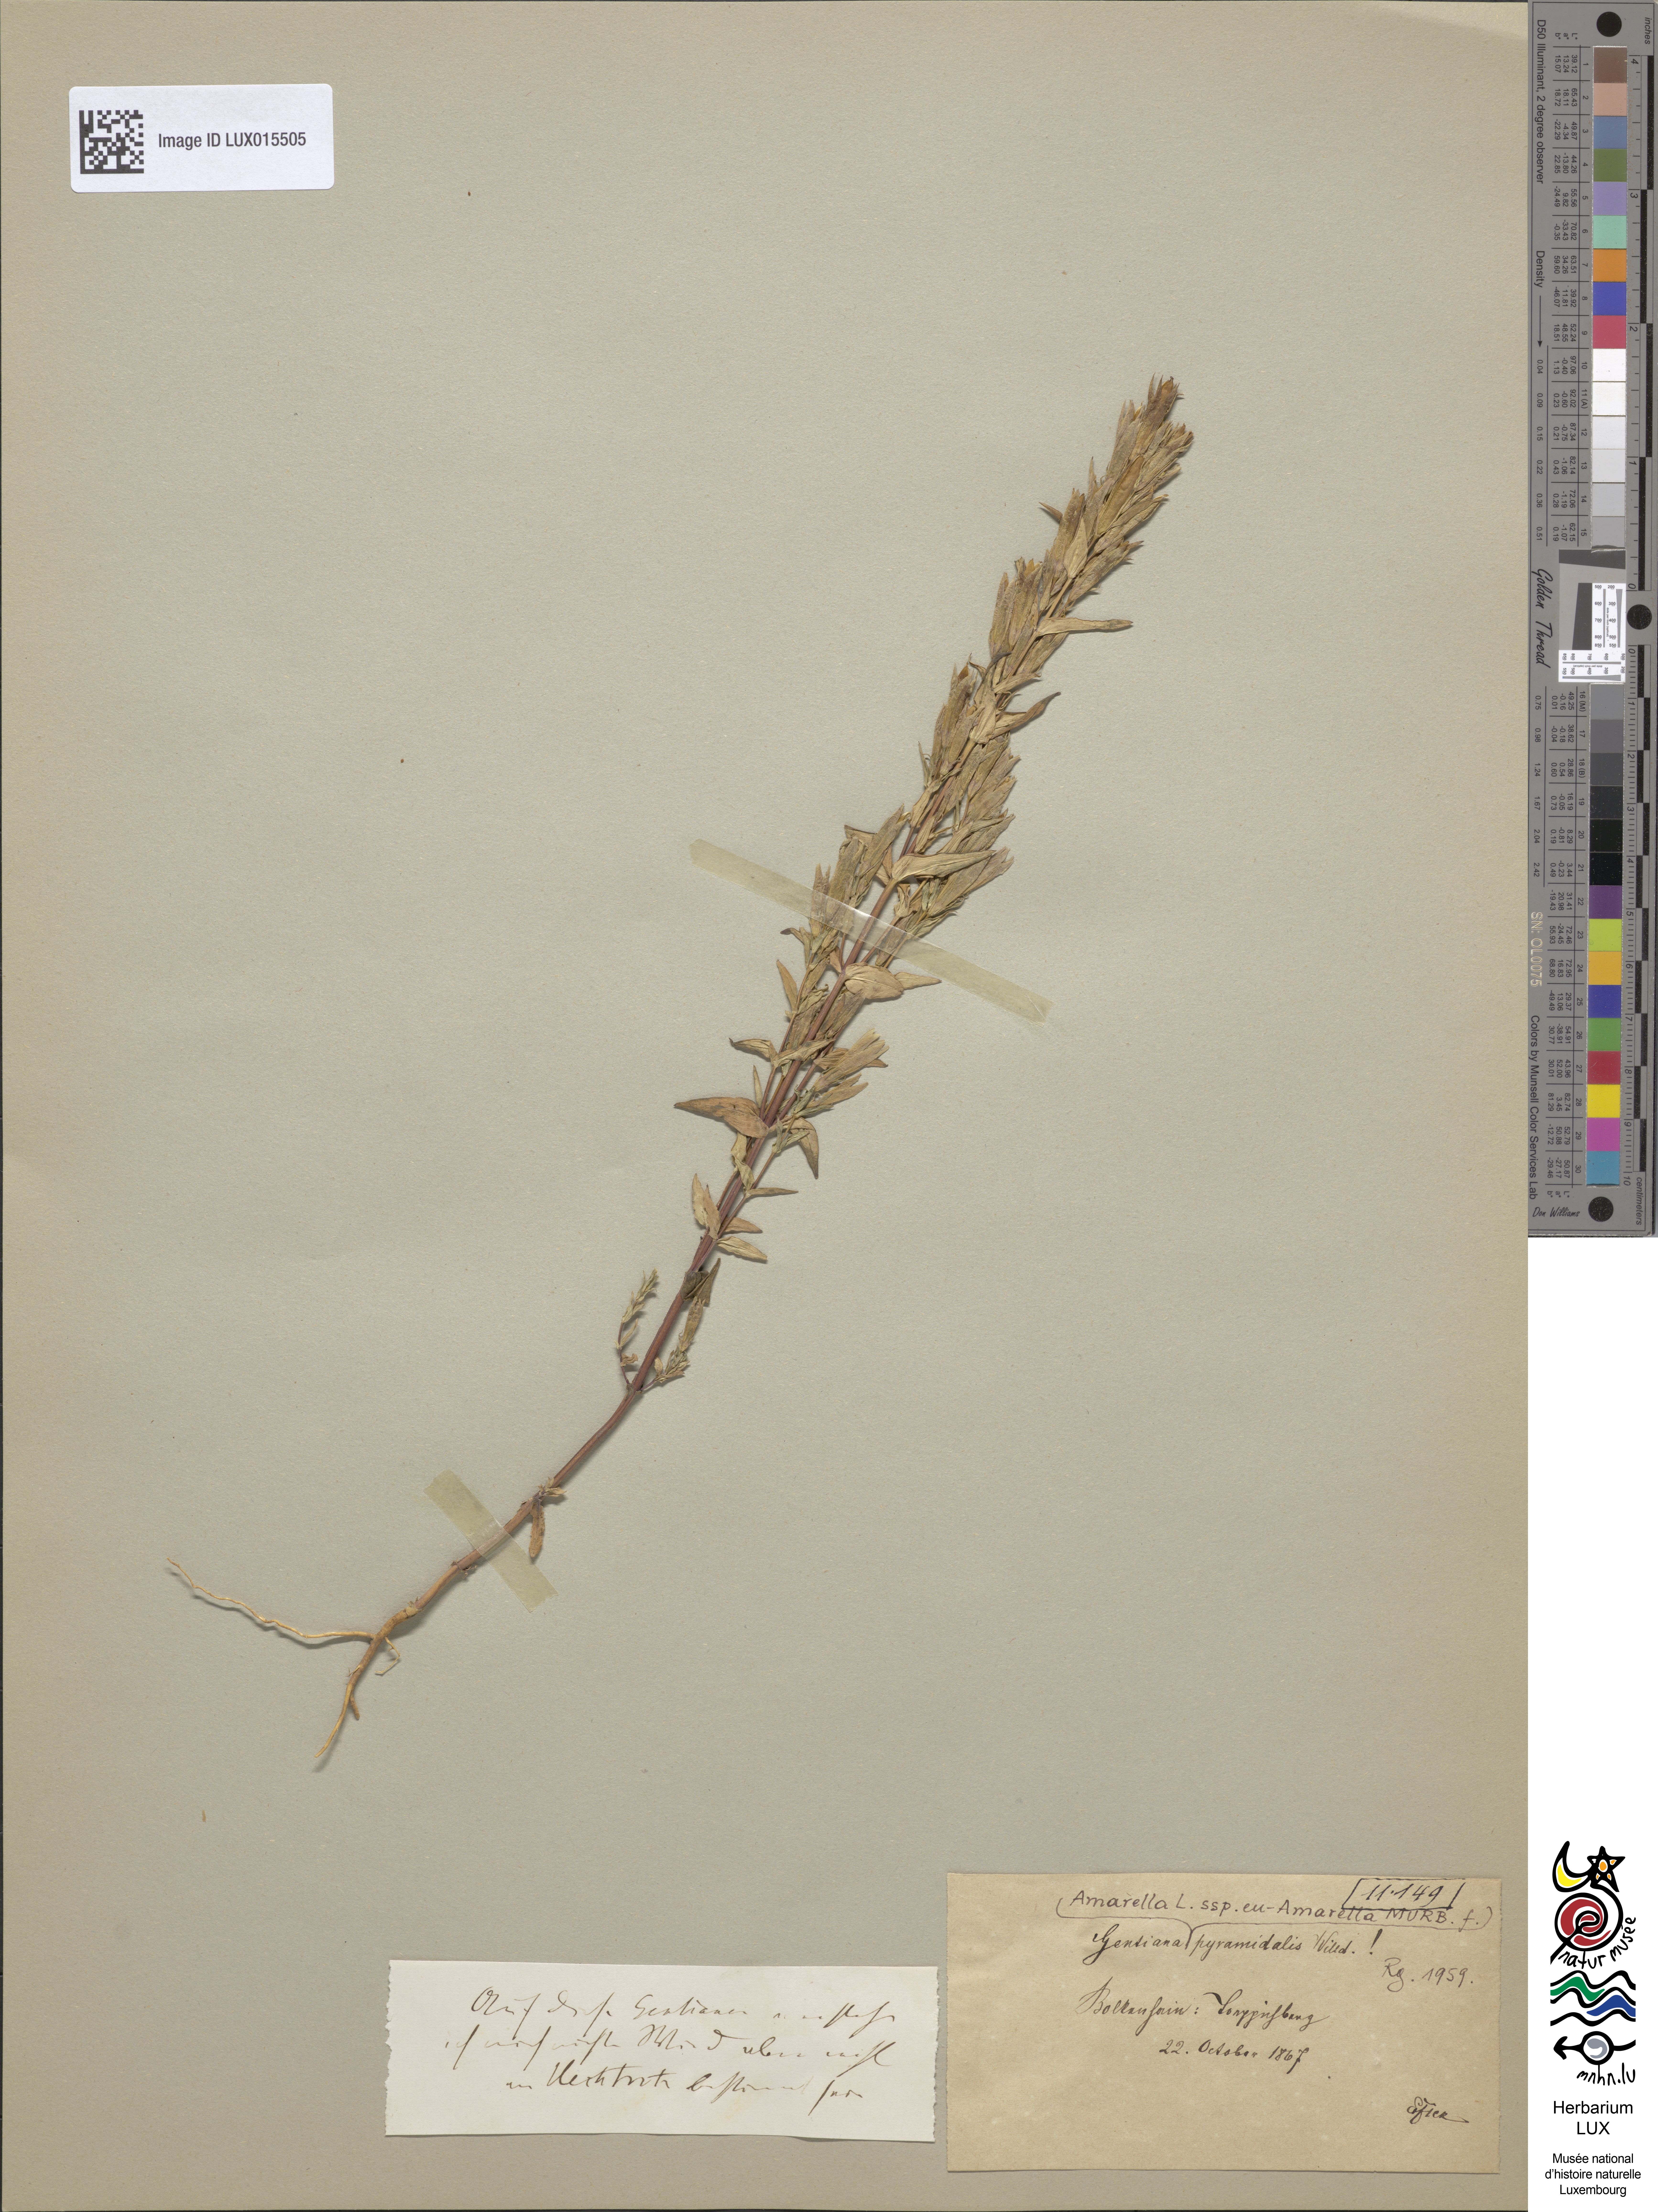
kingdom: Plantae
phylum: Tracheophyta
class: Magnoliopsida
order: Gentianales
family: Gentianaceae
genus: Gentianella
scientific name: Gentianella amarella
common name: Autumn gentian
